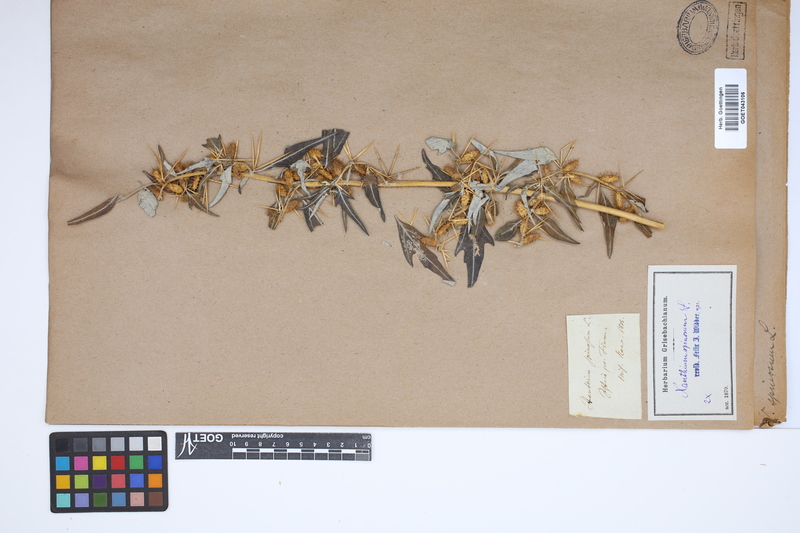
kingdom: Plantae
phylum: Tracheophyta
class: Magnoliopsida
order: Asterales
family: Asteraceae
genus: Xanthium
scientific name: Xanthium spinosum
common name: Spiny cocklebur
